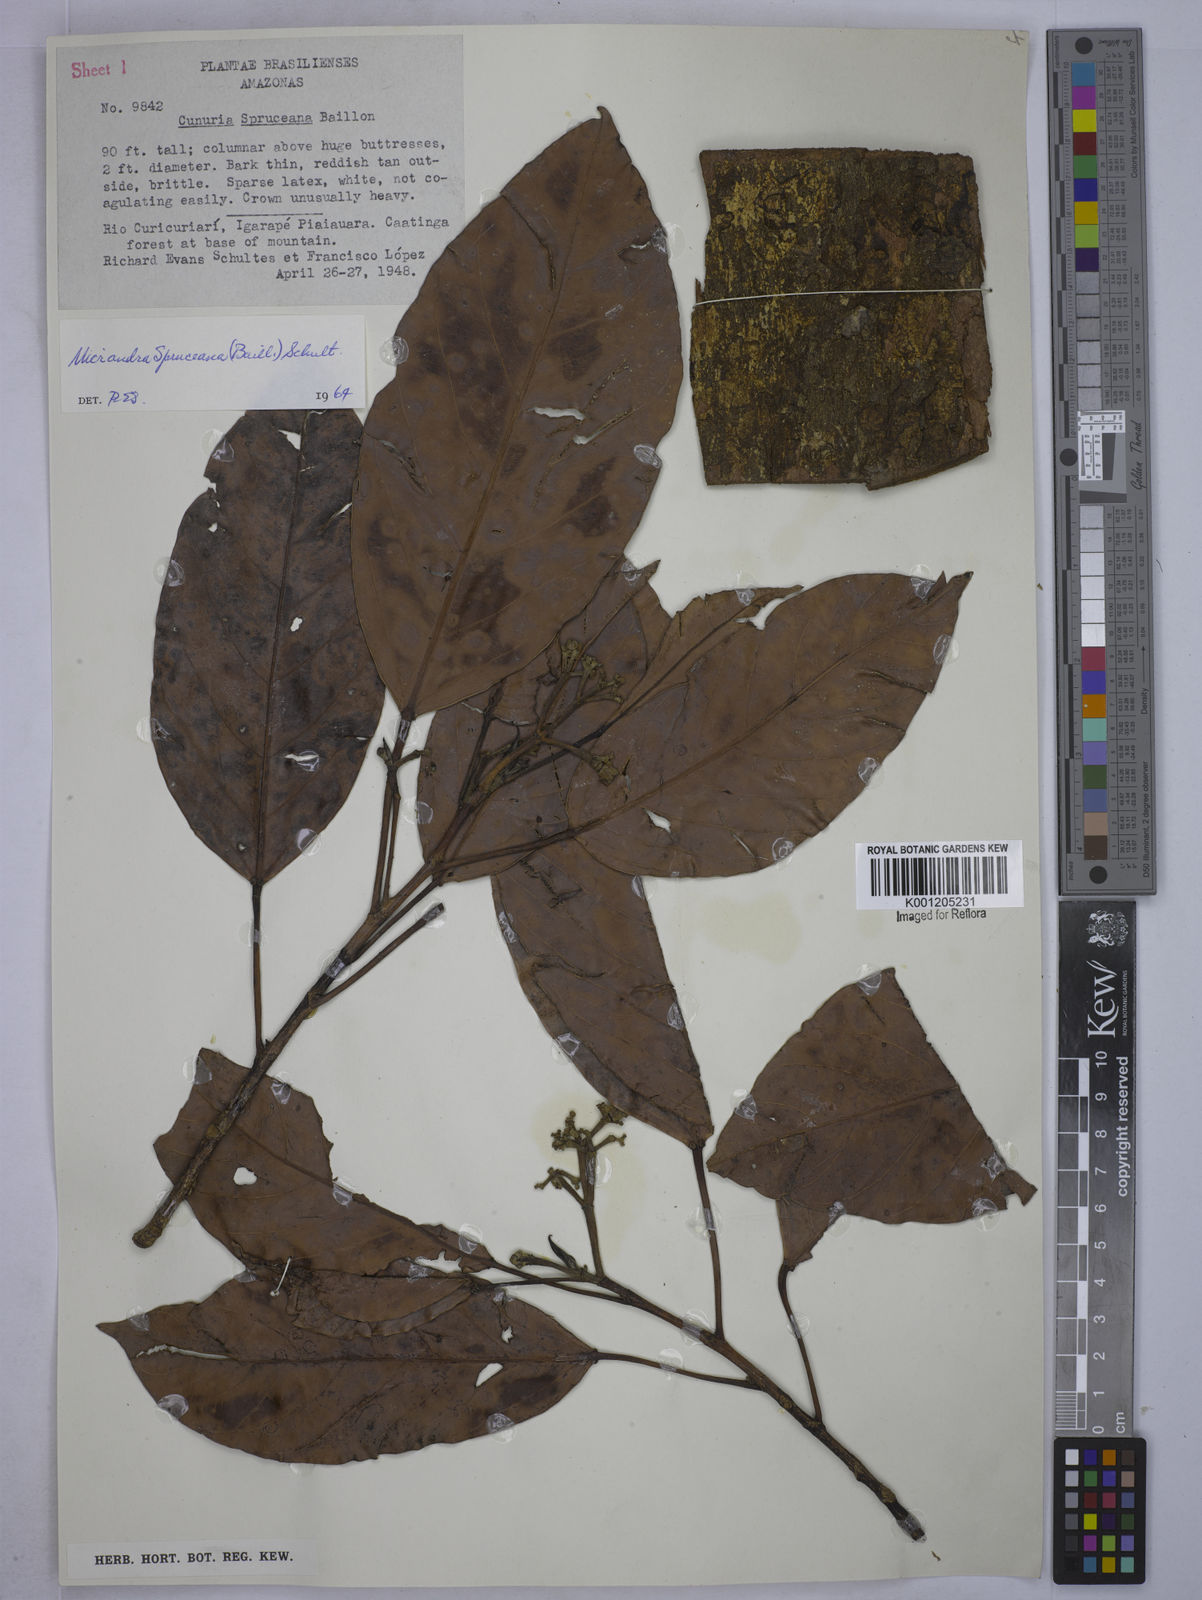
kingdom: Plantae
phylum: Tracheophyta
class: Magnoliopsida
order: Malpighiales
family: Euphorbiaceae
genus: Micrandra
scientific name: Micrandra spruceana
